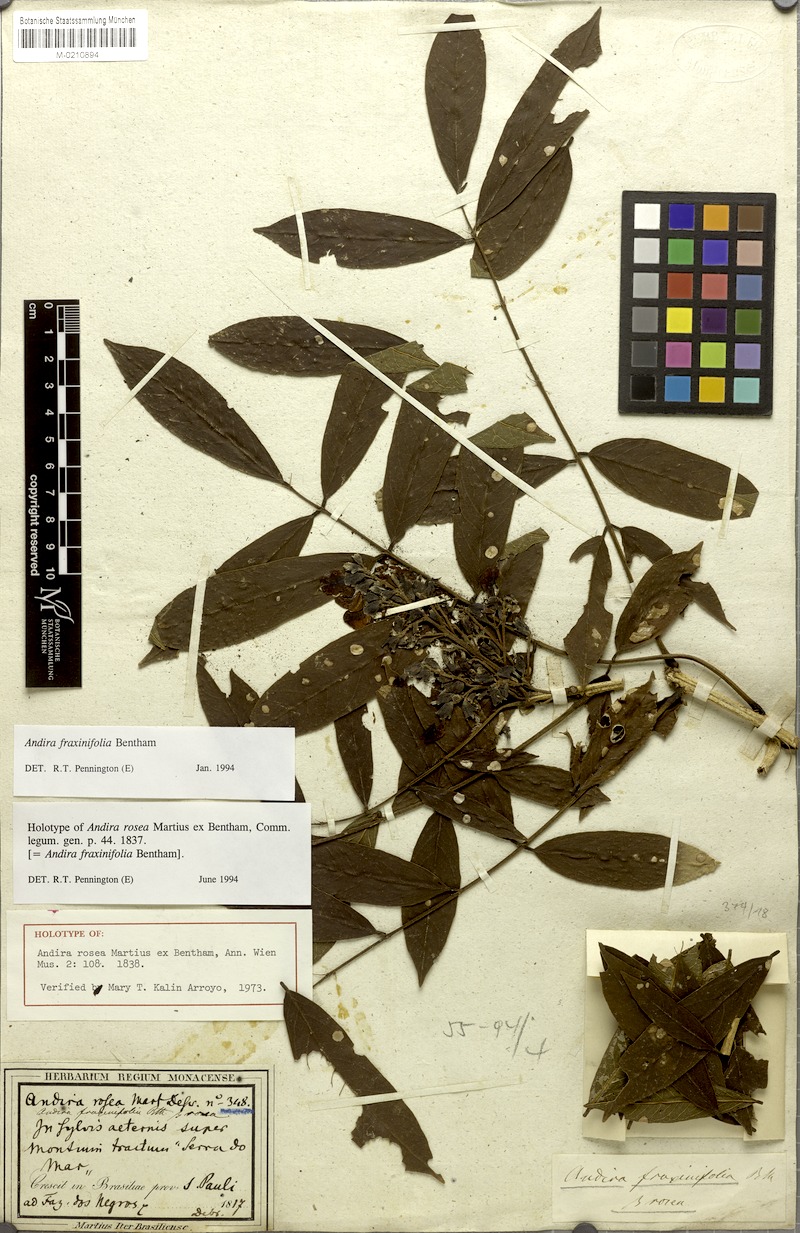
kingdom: Plantae
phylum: Tracheophyta
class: Magnoliopsida
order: Fabales
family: Fabaceae
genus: Andira
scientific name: Andira fraxinifolia
